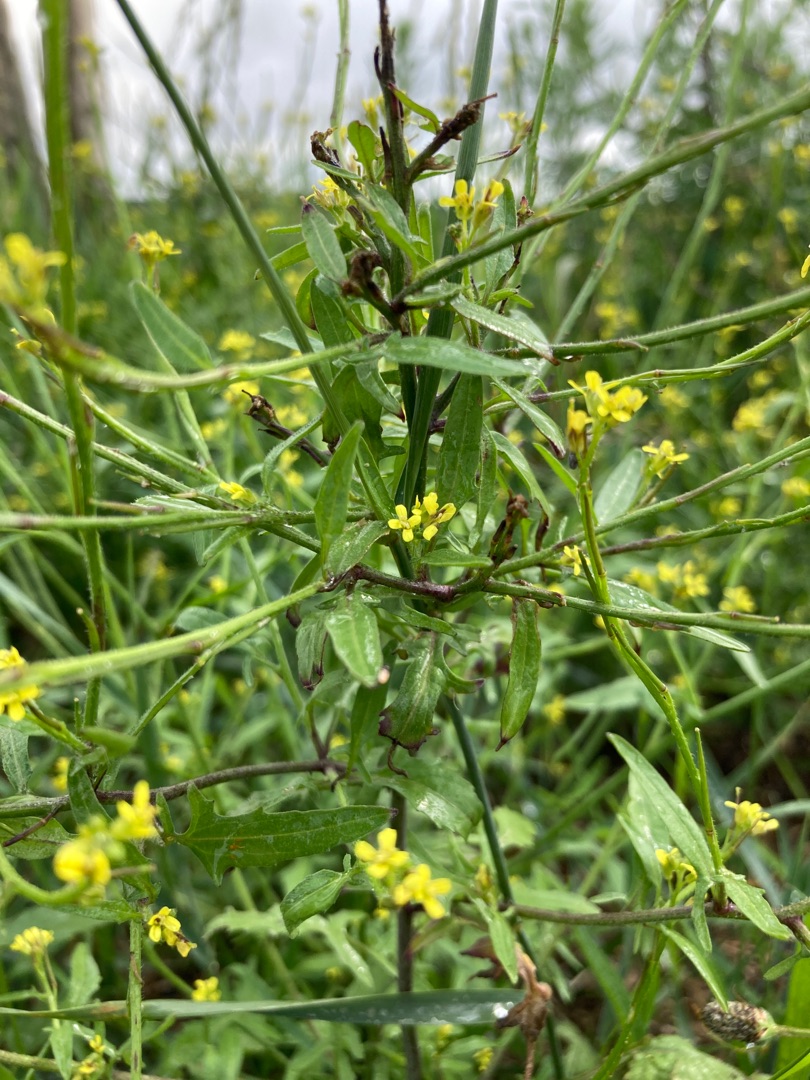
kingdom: Plantae
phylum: Tracheophyta
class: Magnoliopsida
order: Brassicales
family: Brassicaceae
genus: Sisymbrium
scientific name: Sisymbrium officinale
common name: Rank vejsennep
